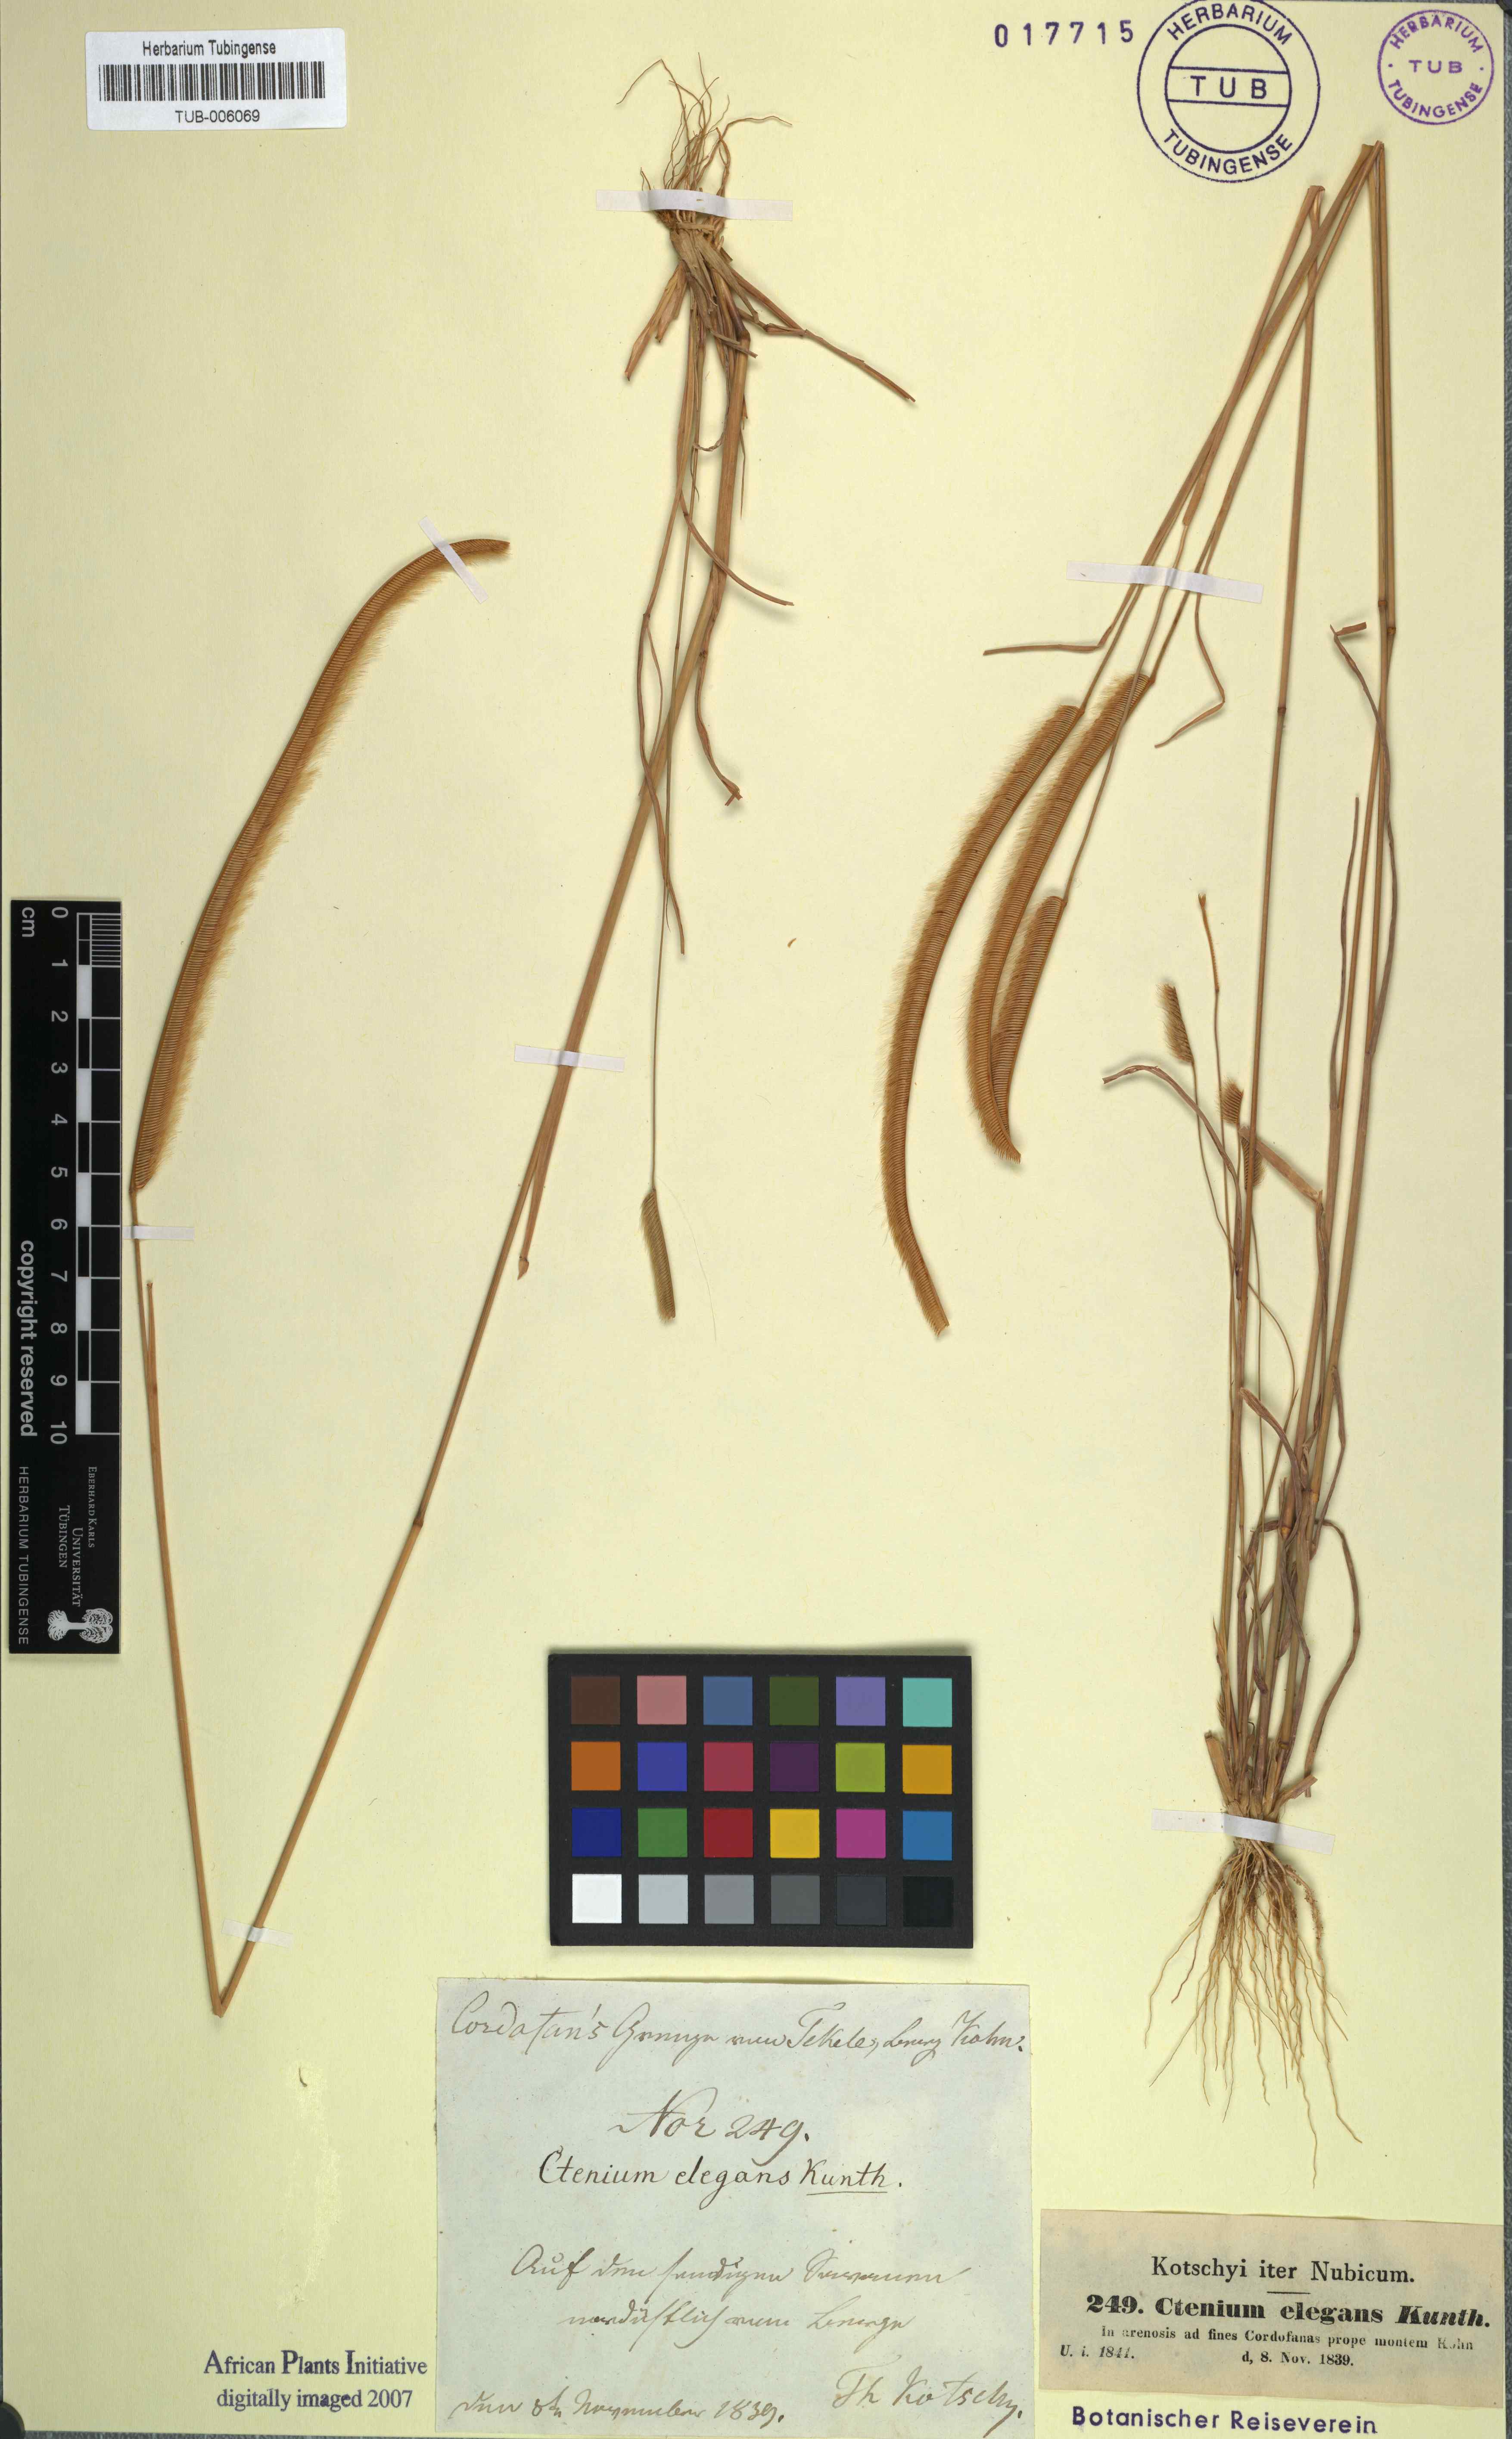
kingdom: Plantae
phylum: Tracheophyta
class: Liliopsida
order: Poales
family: Poaceae
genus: Ctenium
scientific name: Ctenium elegans
